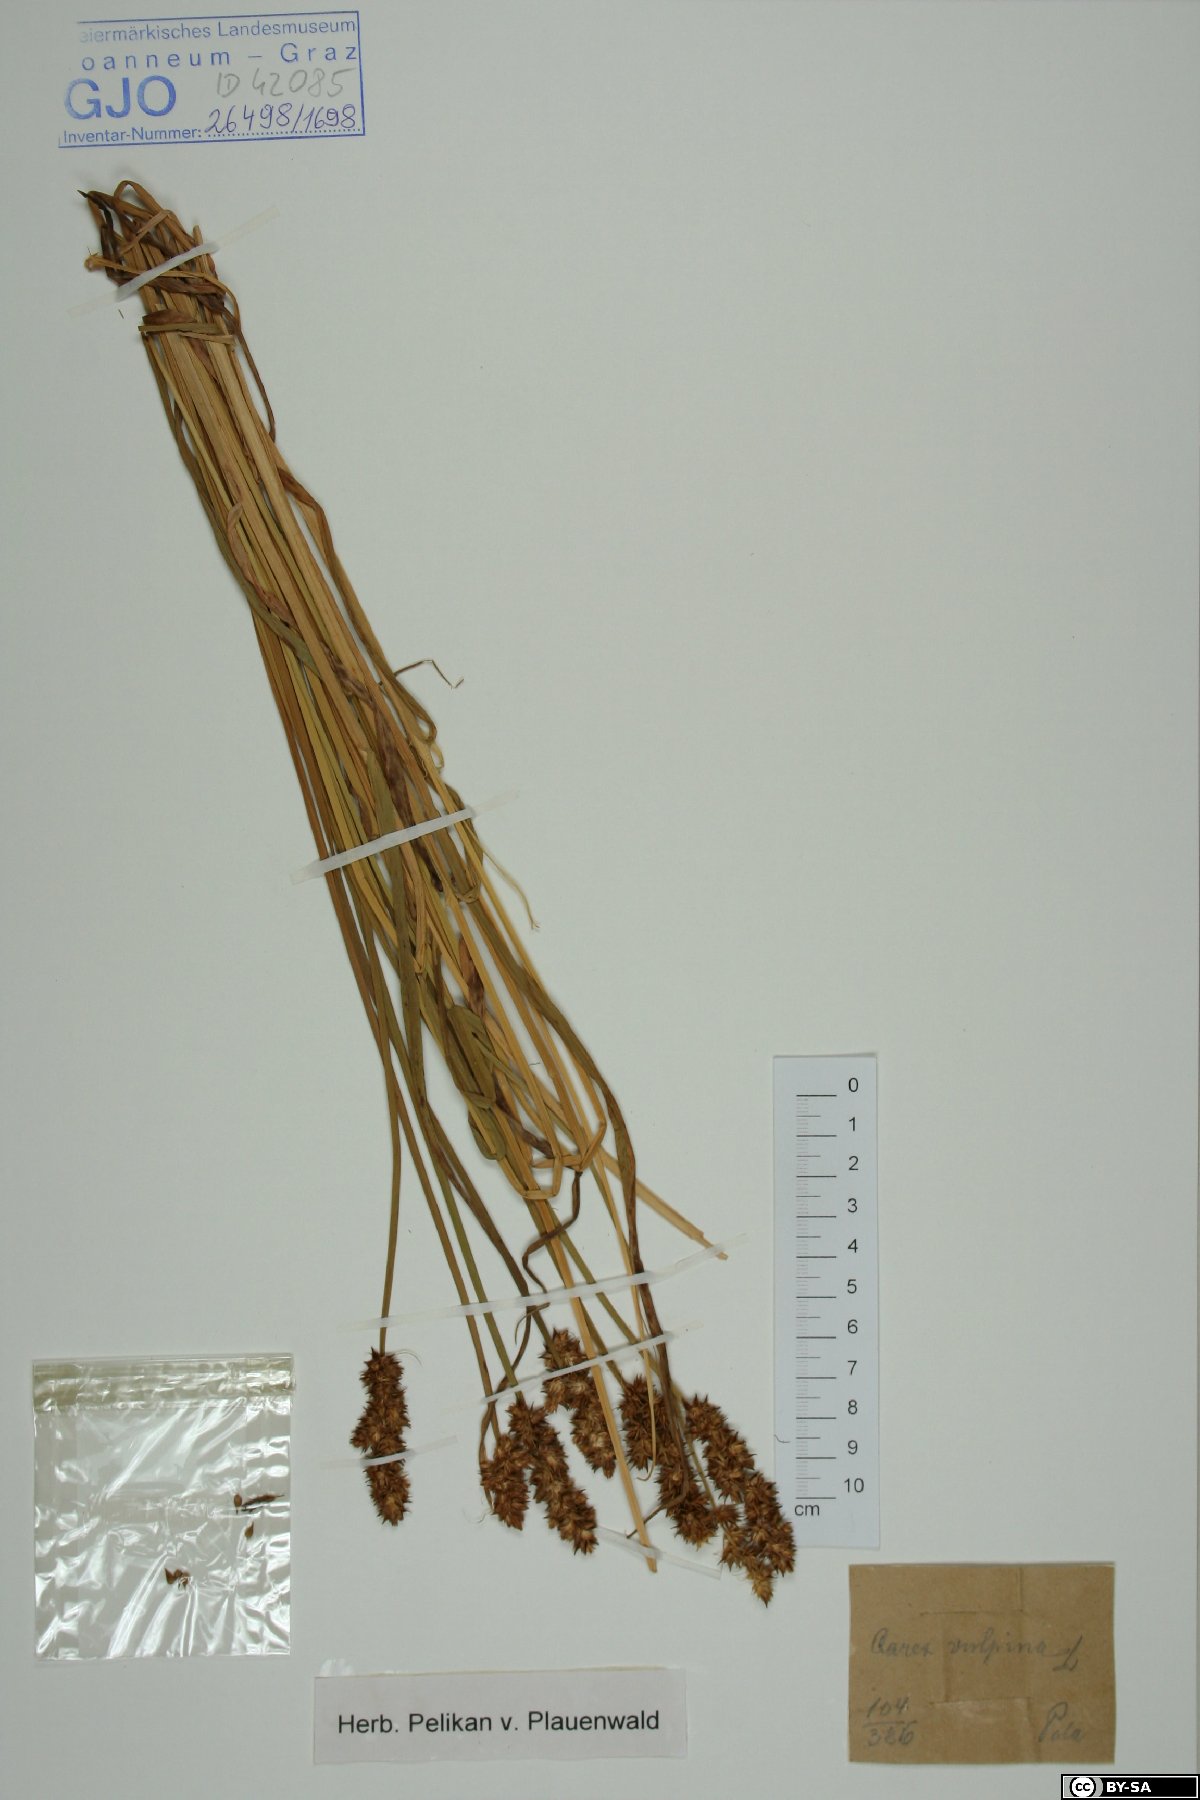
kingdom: Plantae
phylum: Tracheophyta
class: Liliopsida
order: Poales
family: Cyperaceae
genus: Carex
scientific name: Carex vulpina
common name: True fox-sedge
